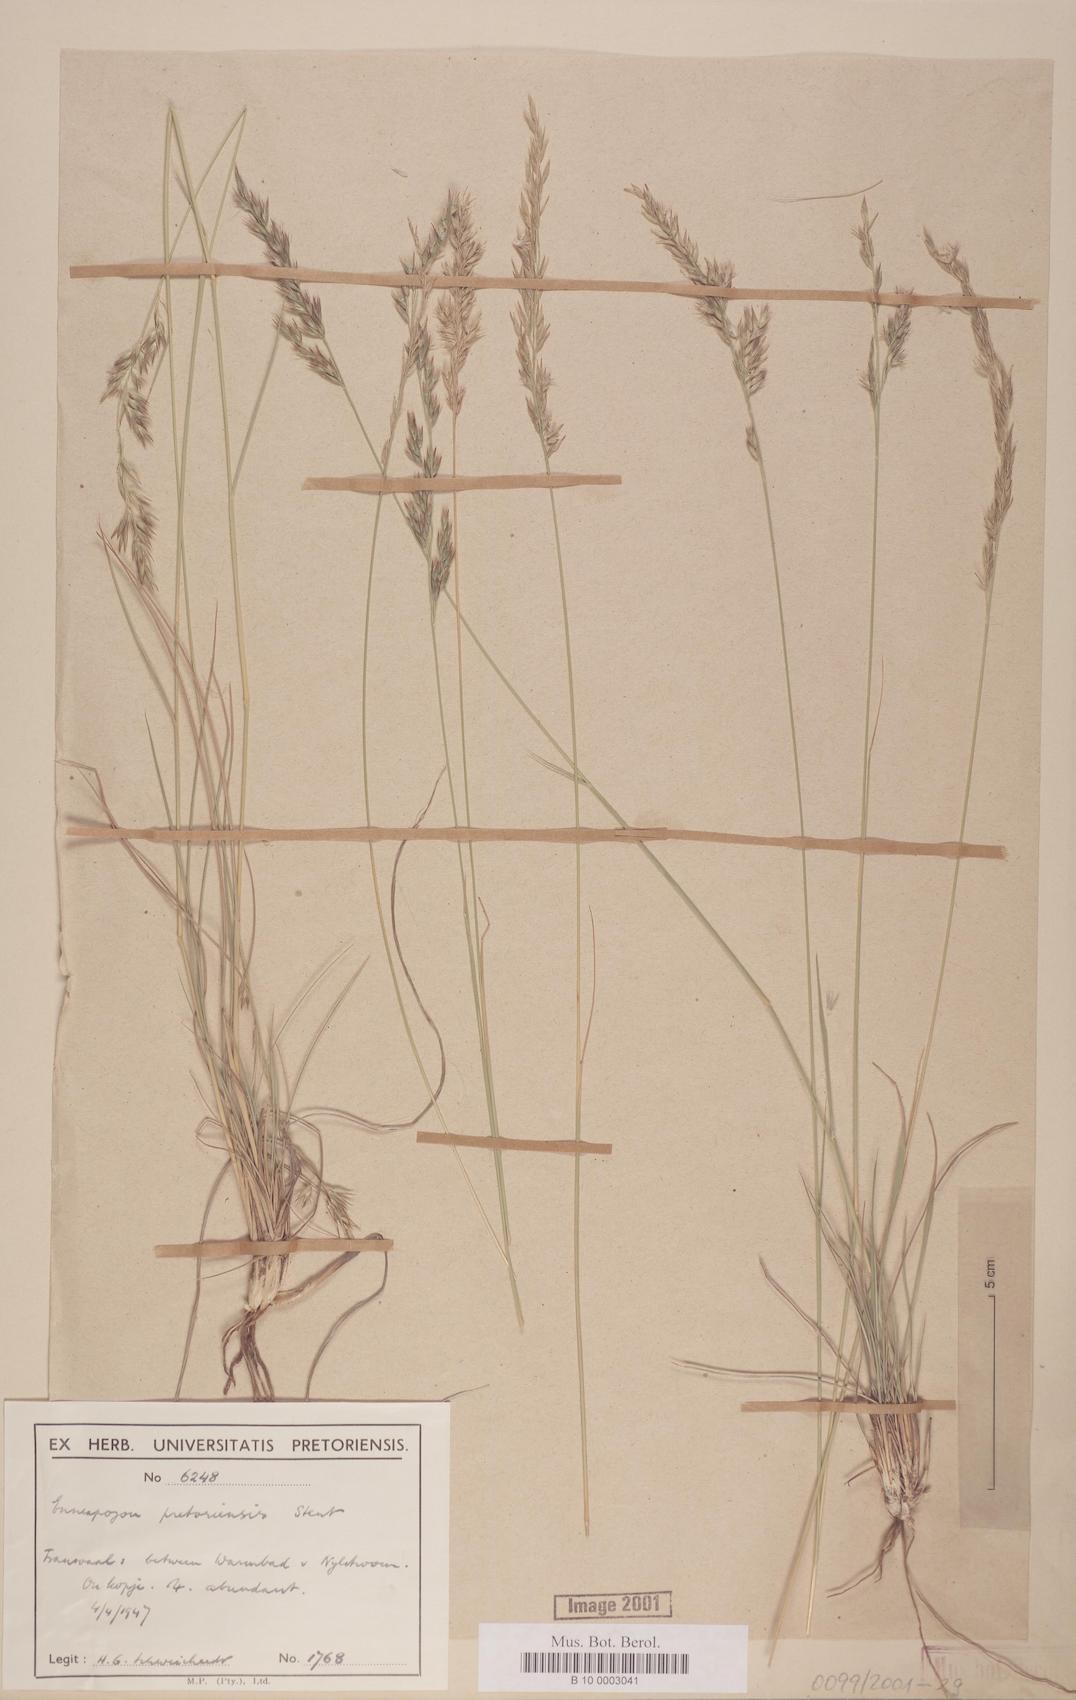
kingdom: Plantae
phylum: Tracheophyta
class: Liliopsida
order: Poales
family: Poaceae
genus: Enneapogon
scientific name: Enneapogon pretoriensis
